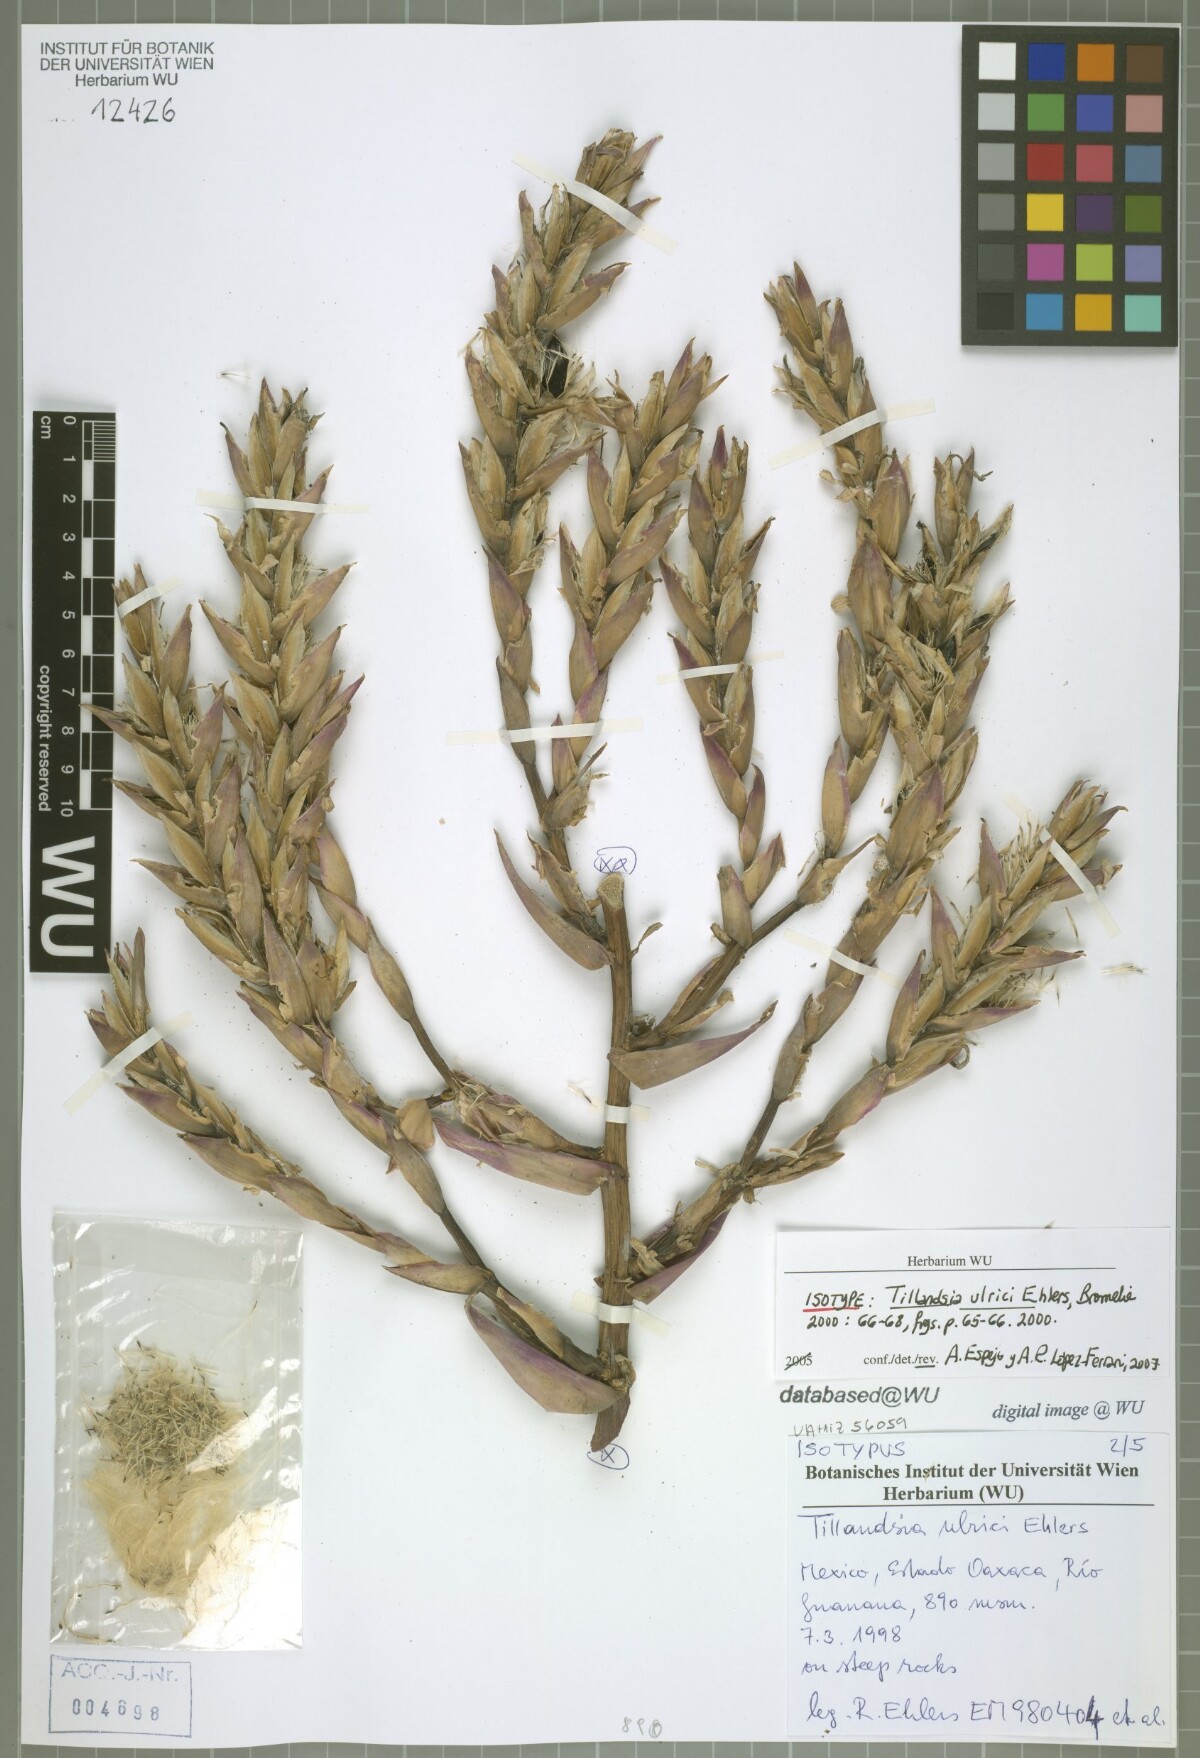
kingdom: Plantae
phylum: Tracheophyta
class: Liliopsida
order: Poales
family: Bromeliaceae
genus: Tillandsia
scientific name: Tillandsia ulrici
